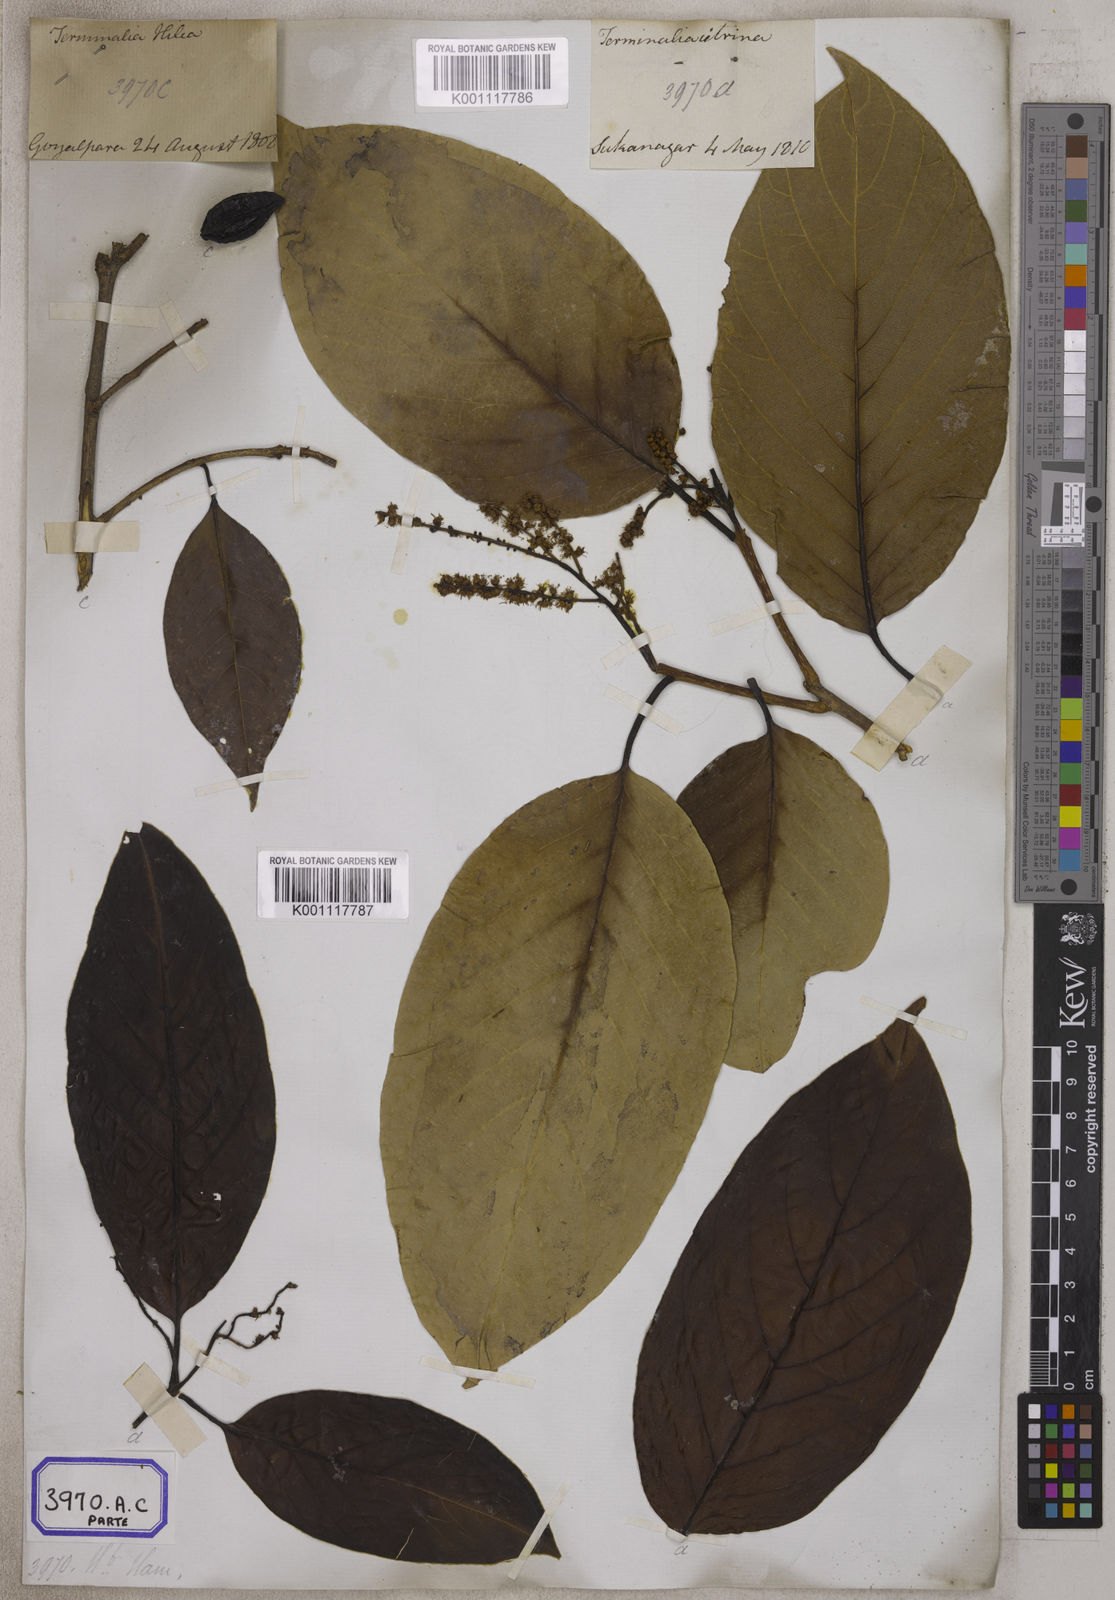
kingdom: Plantae
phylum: Tracheophyta
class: Magnoliopsida
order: Myrtales
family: Combretaceae
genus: Terminalia
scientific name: Terminalia citrina
